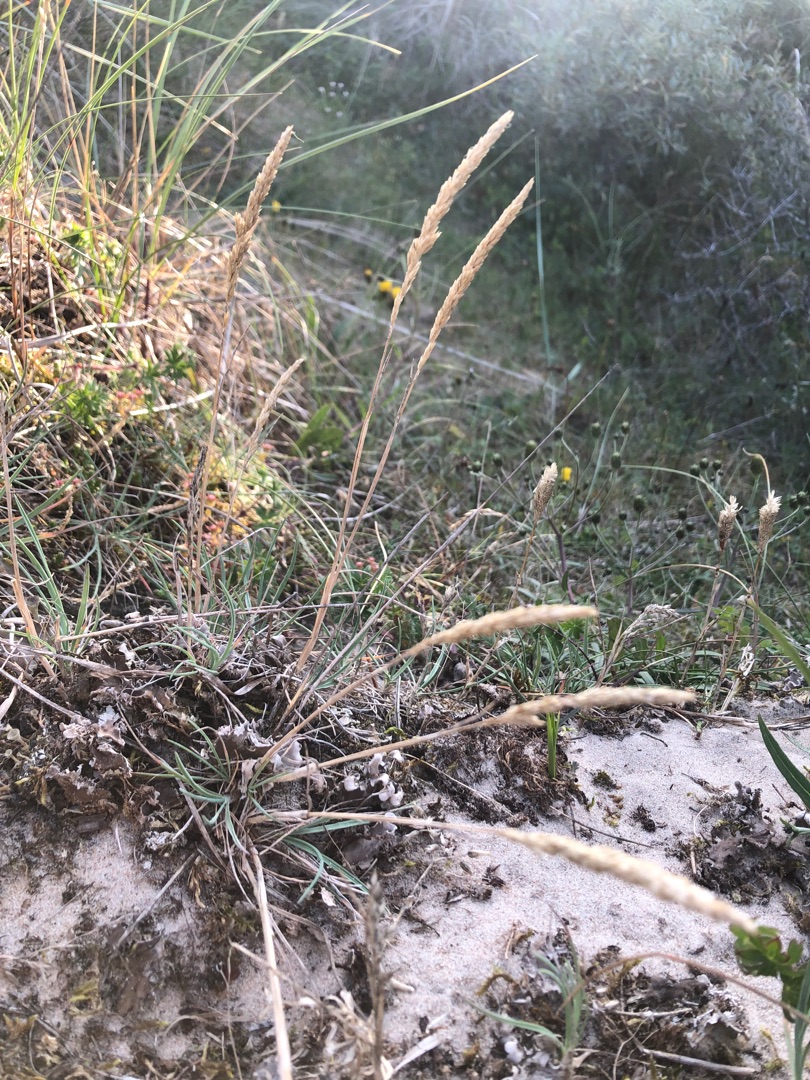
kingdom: Plantae
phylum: Tracheophyta
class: Liliopsida
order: Poales
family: Poaceae
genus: Koeleria
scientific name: Koeleria glauca
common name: Klit-kambunke
